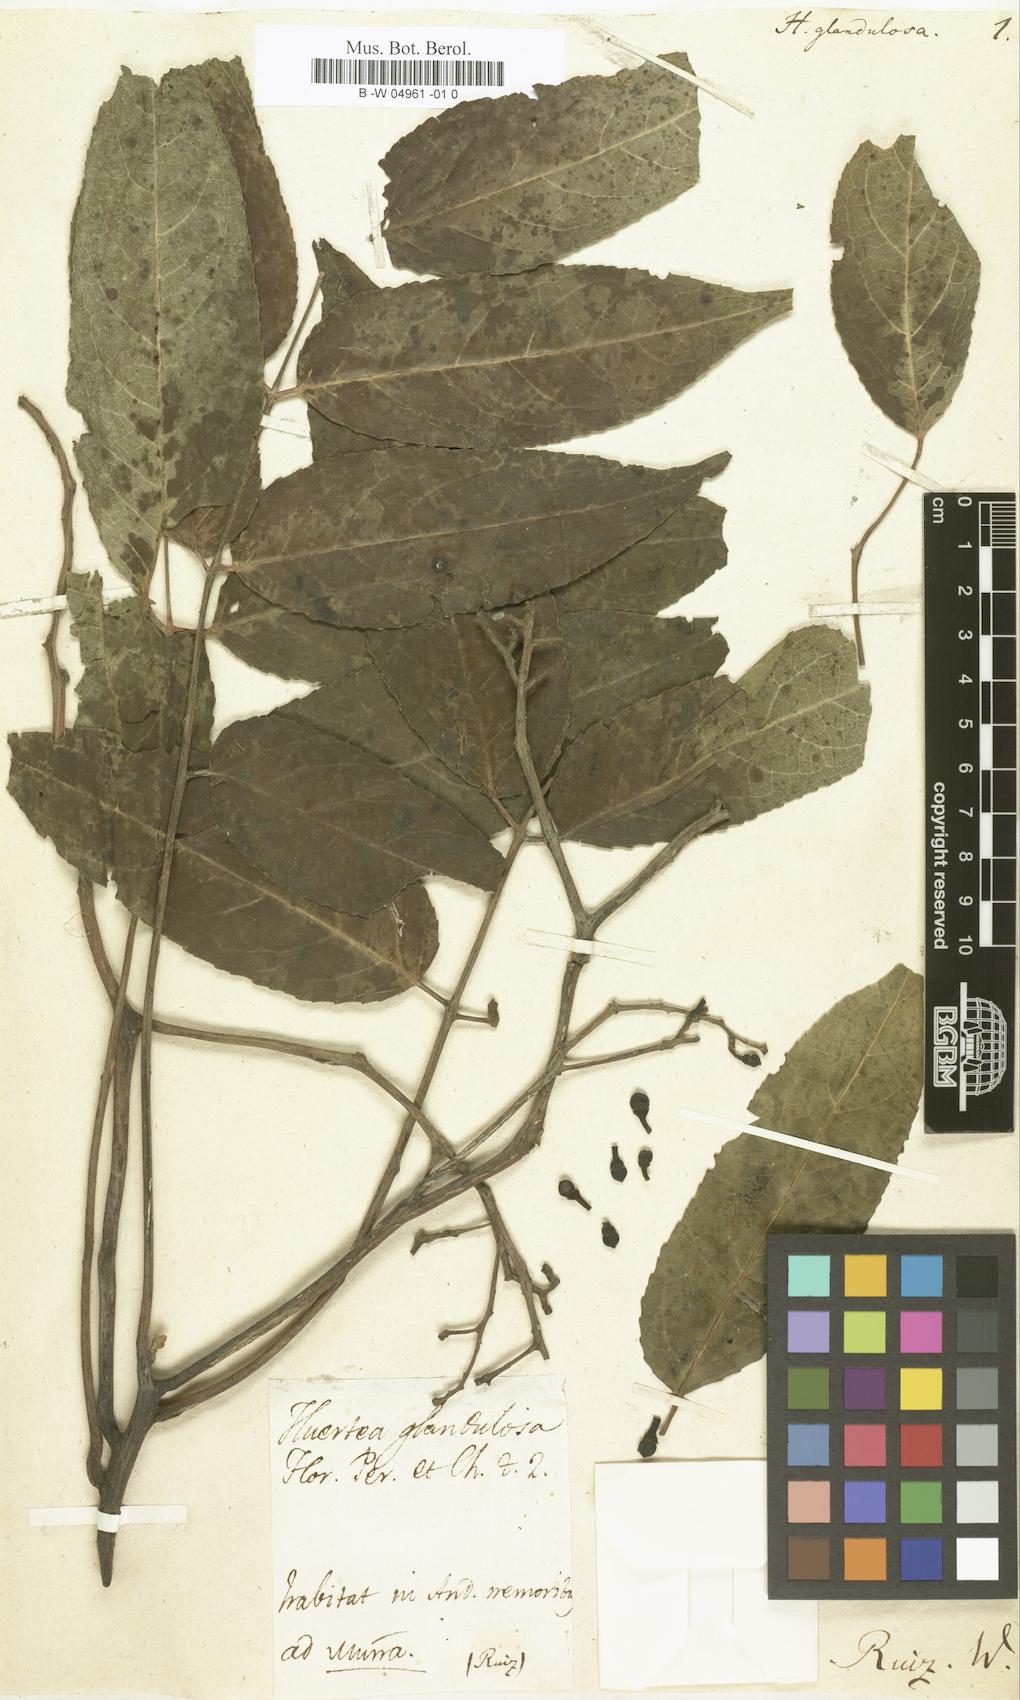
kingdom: Plantae
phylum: Tracheophyta
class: Magnoliopsida
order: Huerteales
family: Tapisciaceae
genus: Huertea
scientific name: Huertea glandulosa
